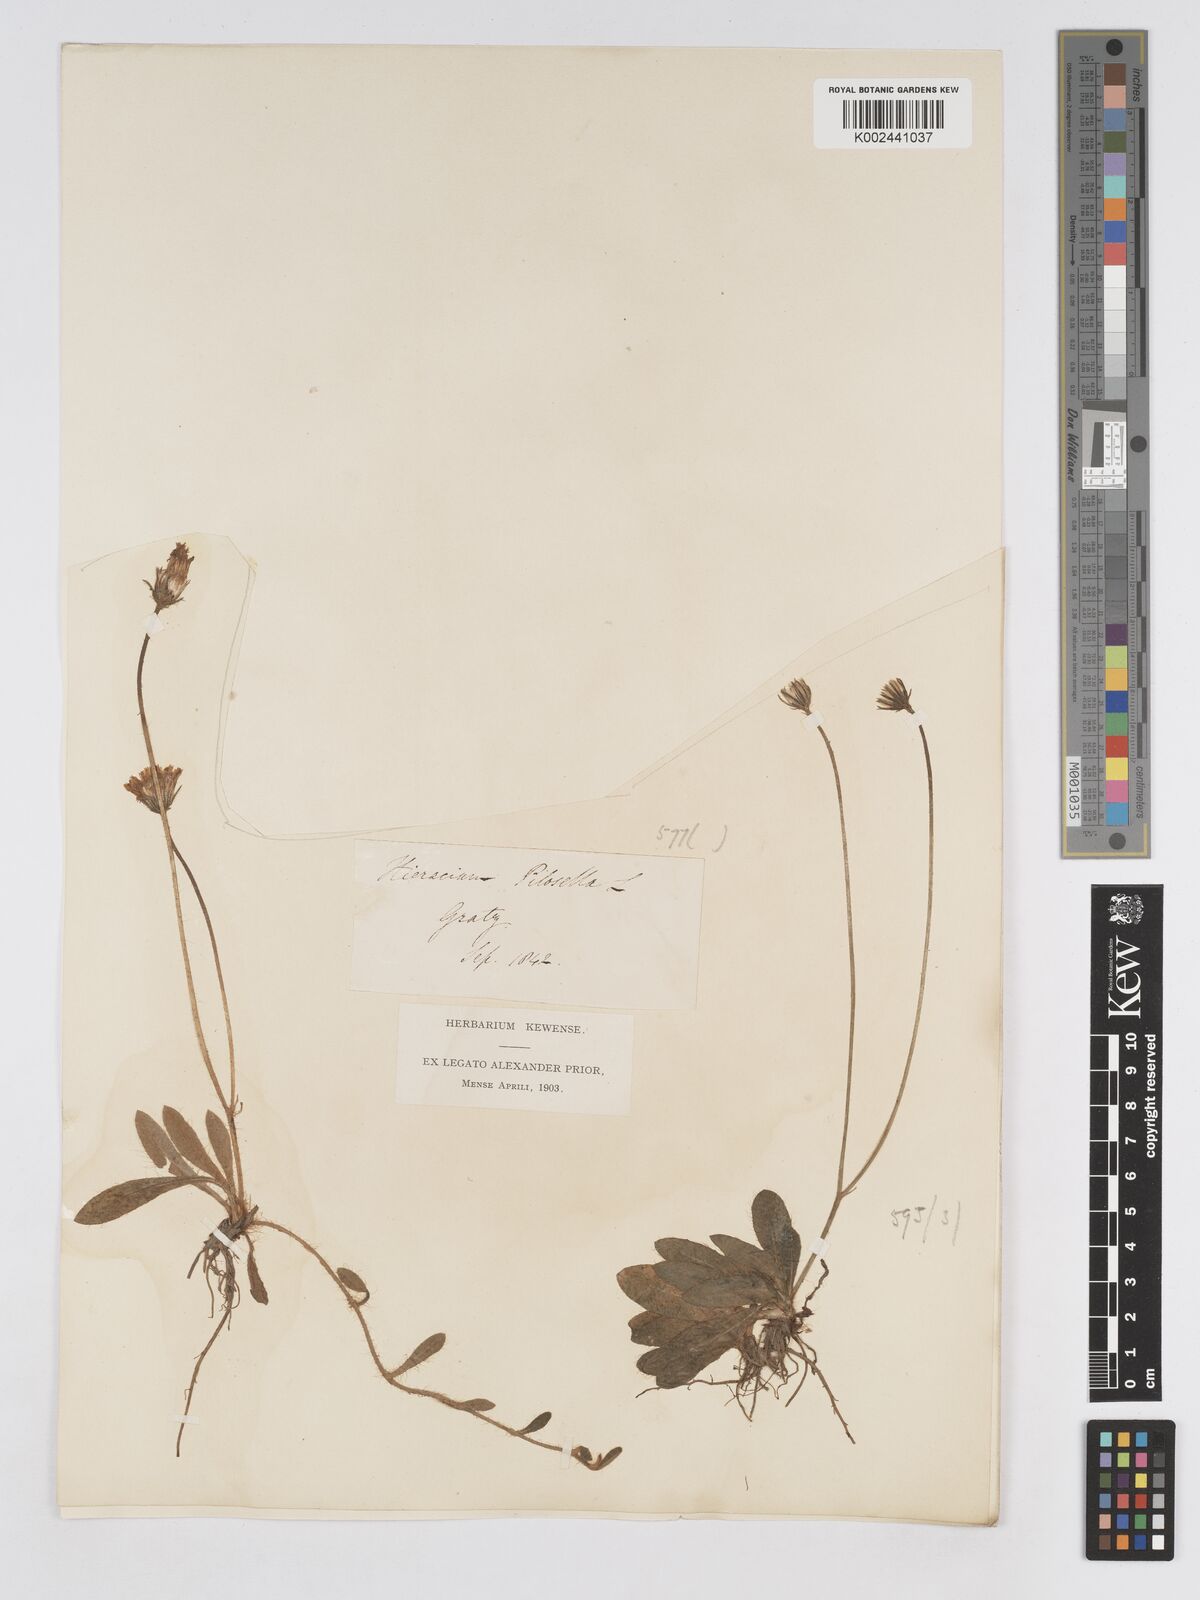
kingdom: Plantae
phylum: Tracheophyta
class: Magnoliopsida
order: Asterales
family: Asteraceae
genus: Pilosella
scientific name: Pilosella sphaerocephala
